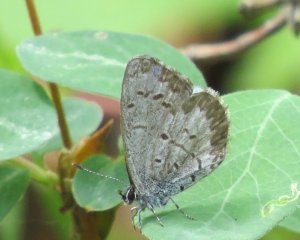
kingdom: Animalia
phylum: Arthropoda
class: Insecta
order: Lepidoptera
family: Lycaenidae
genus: Celastrina
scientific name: Celastrina lucia
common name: Northern Spring Azure
